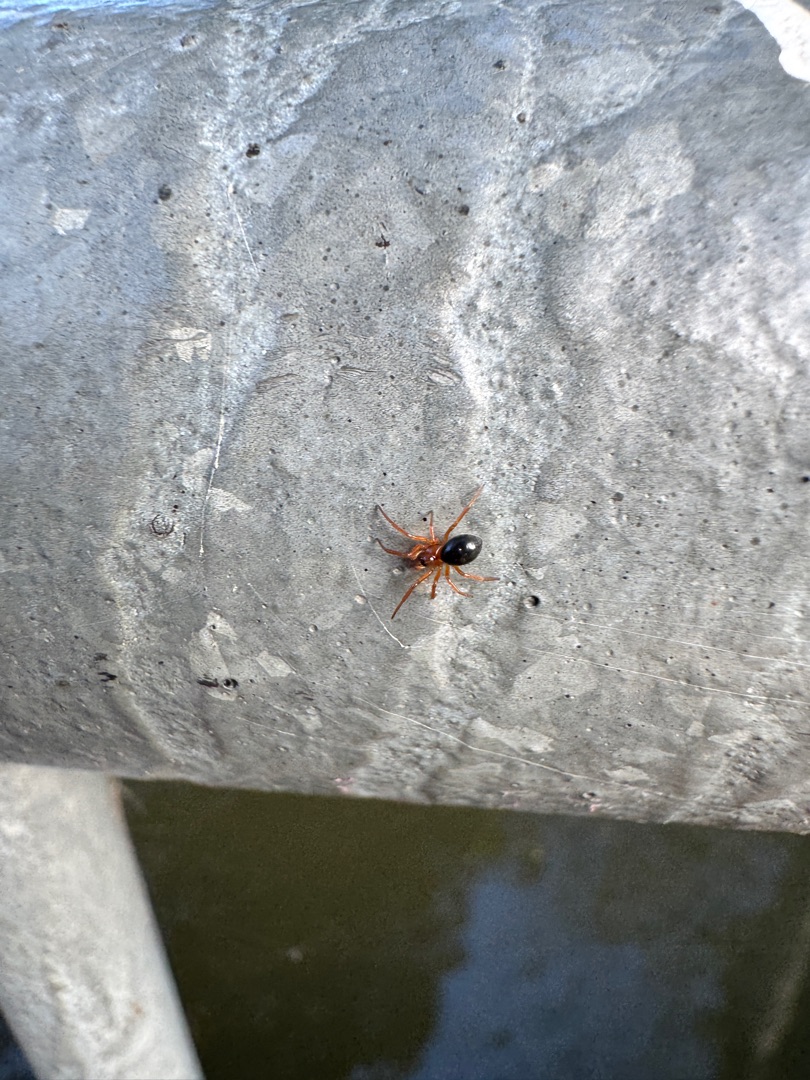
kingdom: Animalia
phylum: Arthropoda
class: Arachnida
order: Araneae
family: Linyphiidae
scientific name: Linyphiidae
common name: Tæppespindere
